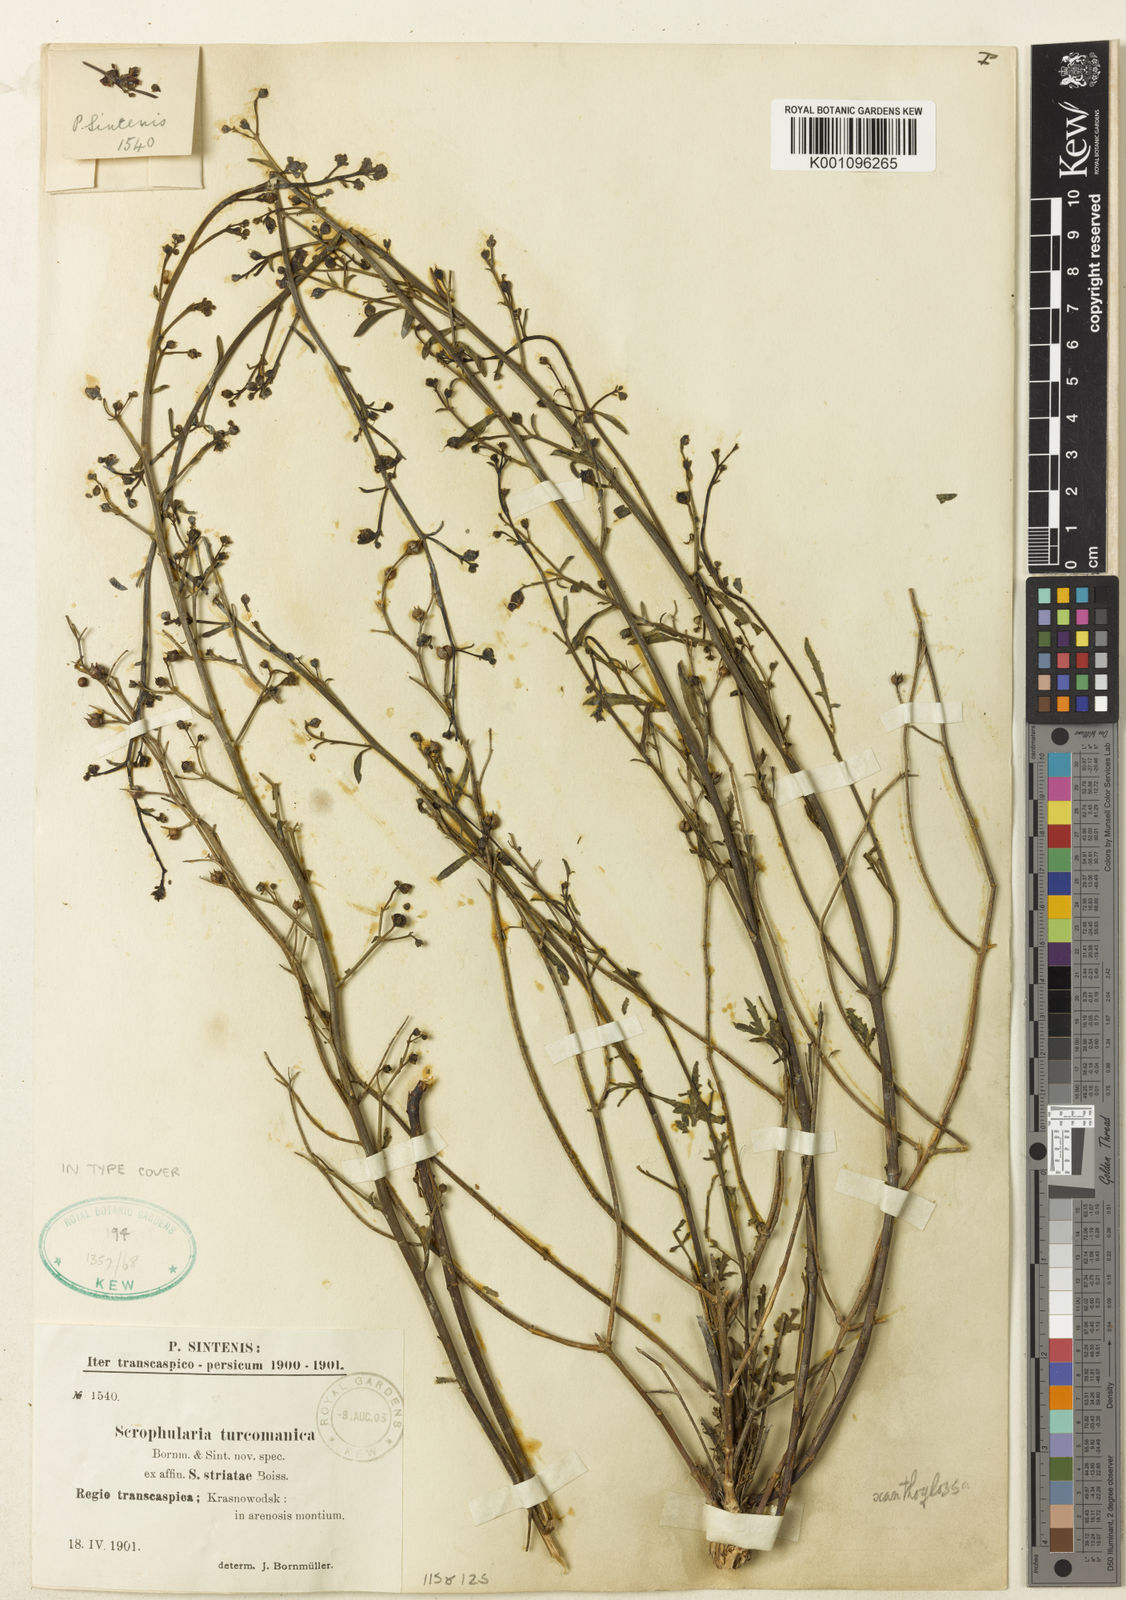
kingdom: Plantae
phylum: Tracheophyta
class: Magnoliopsida
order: Lamiales
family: Scrophulariaceae
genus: Scrophularia
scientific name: Scrophularia xanthoglossa
